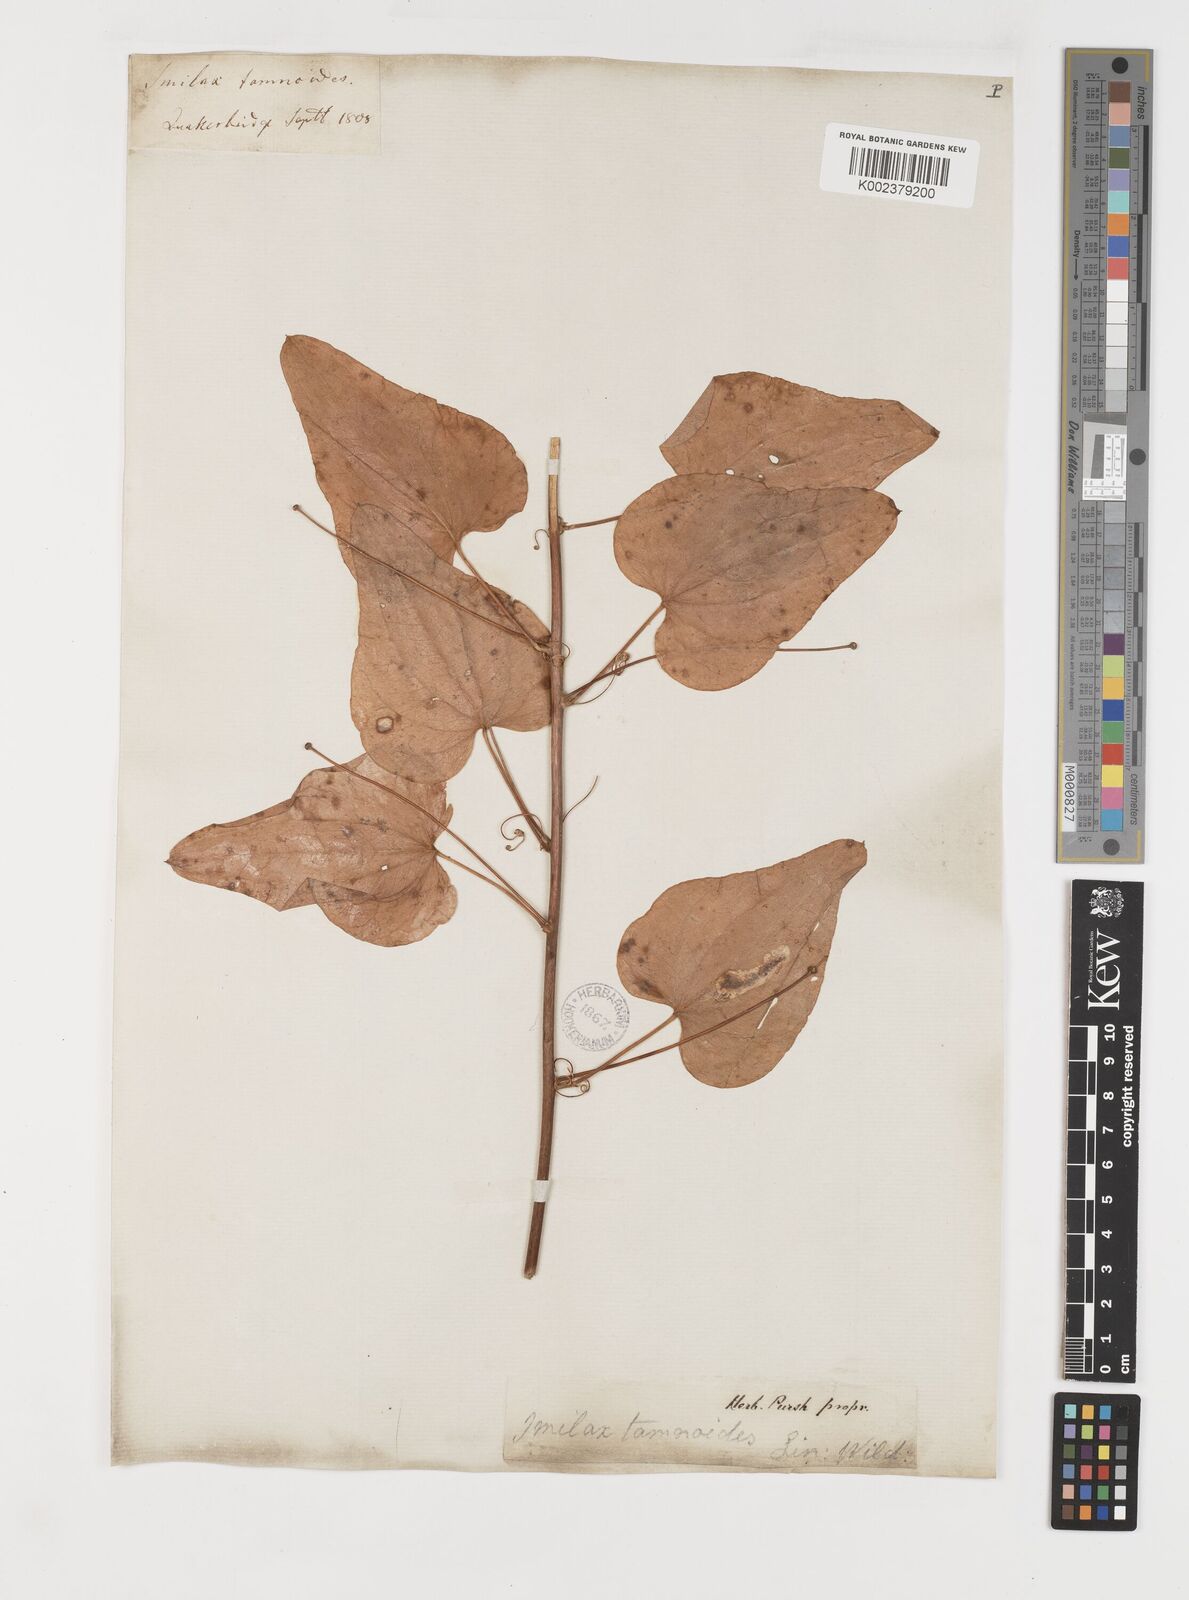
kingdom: Plantae
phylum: Tracheophyta
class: Liliopsida
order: Liliales
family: Smilacaceae
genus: Smilax
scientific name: Smilax pseudochina
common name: False chinaroot
